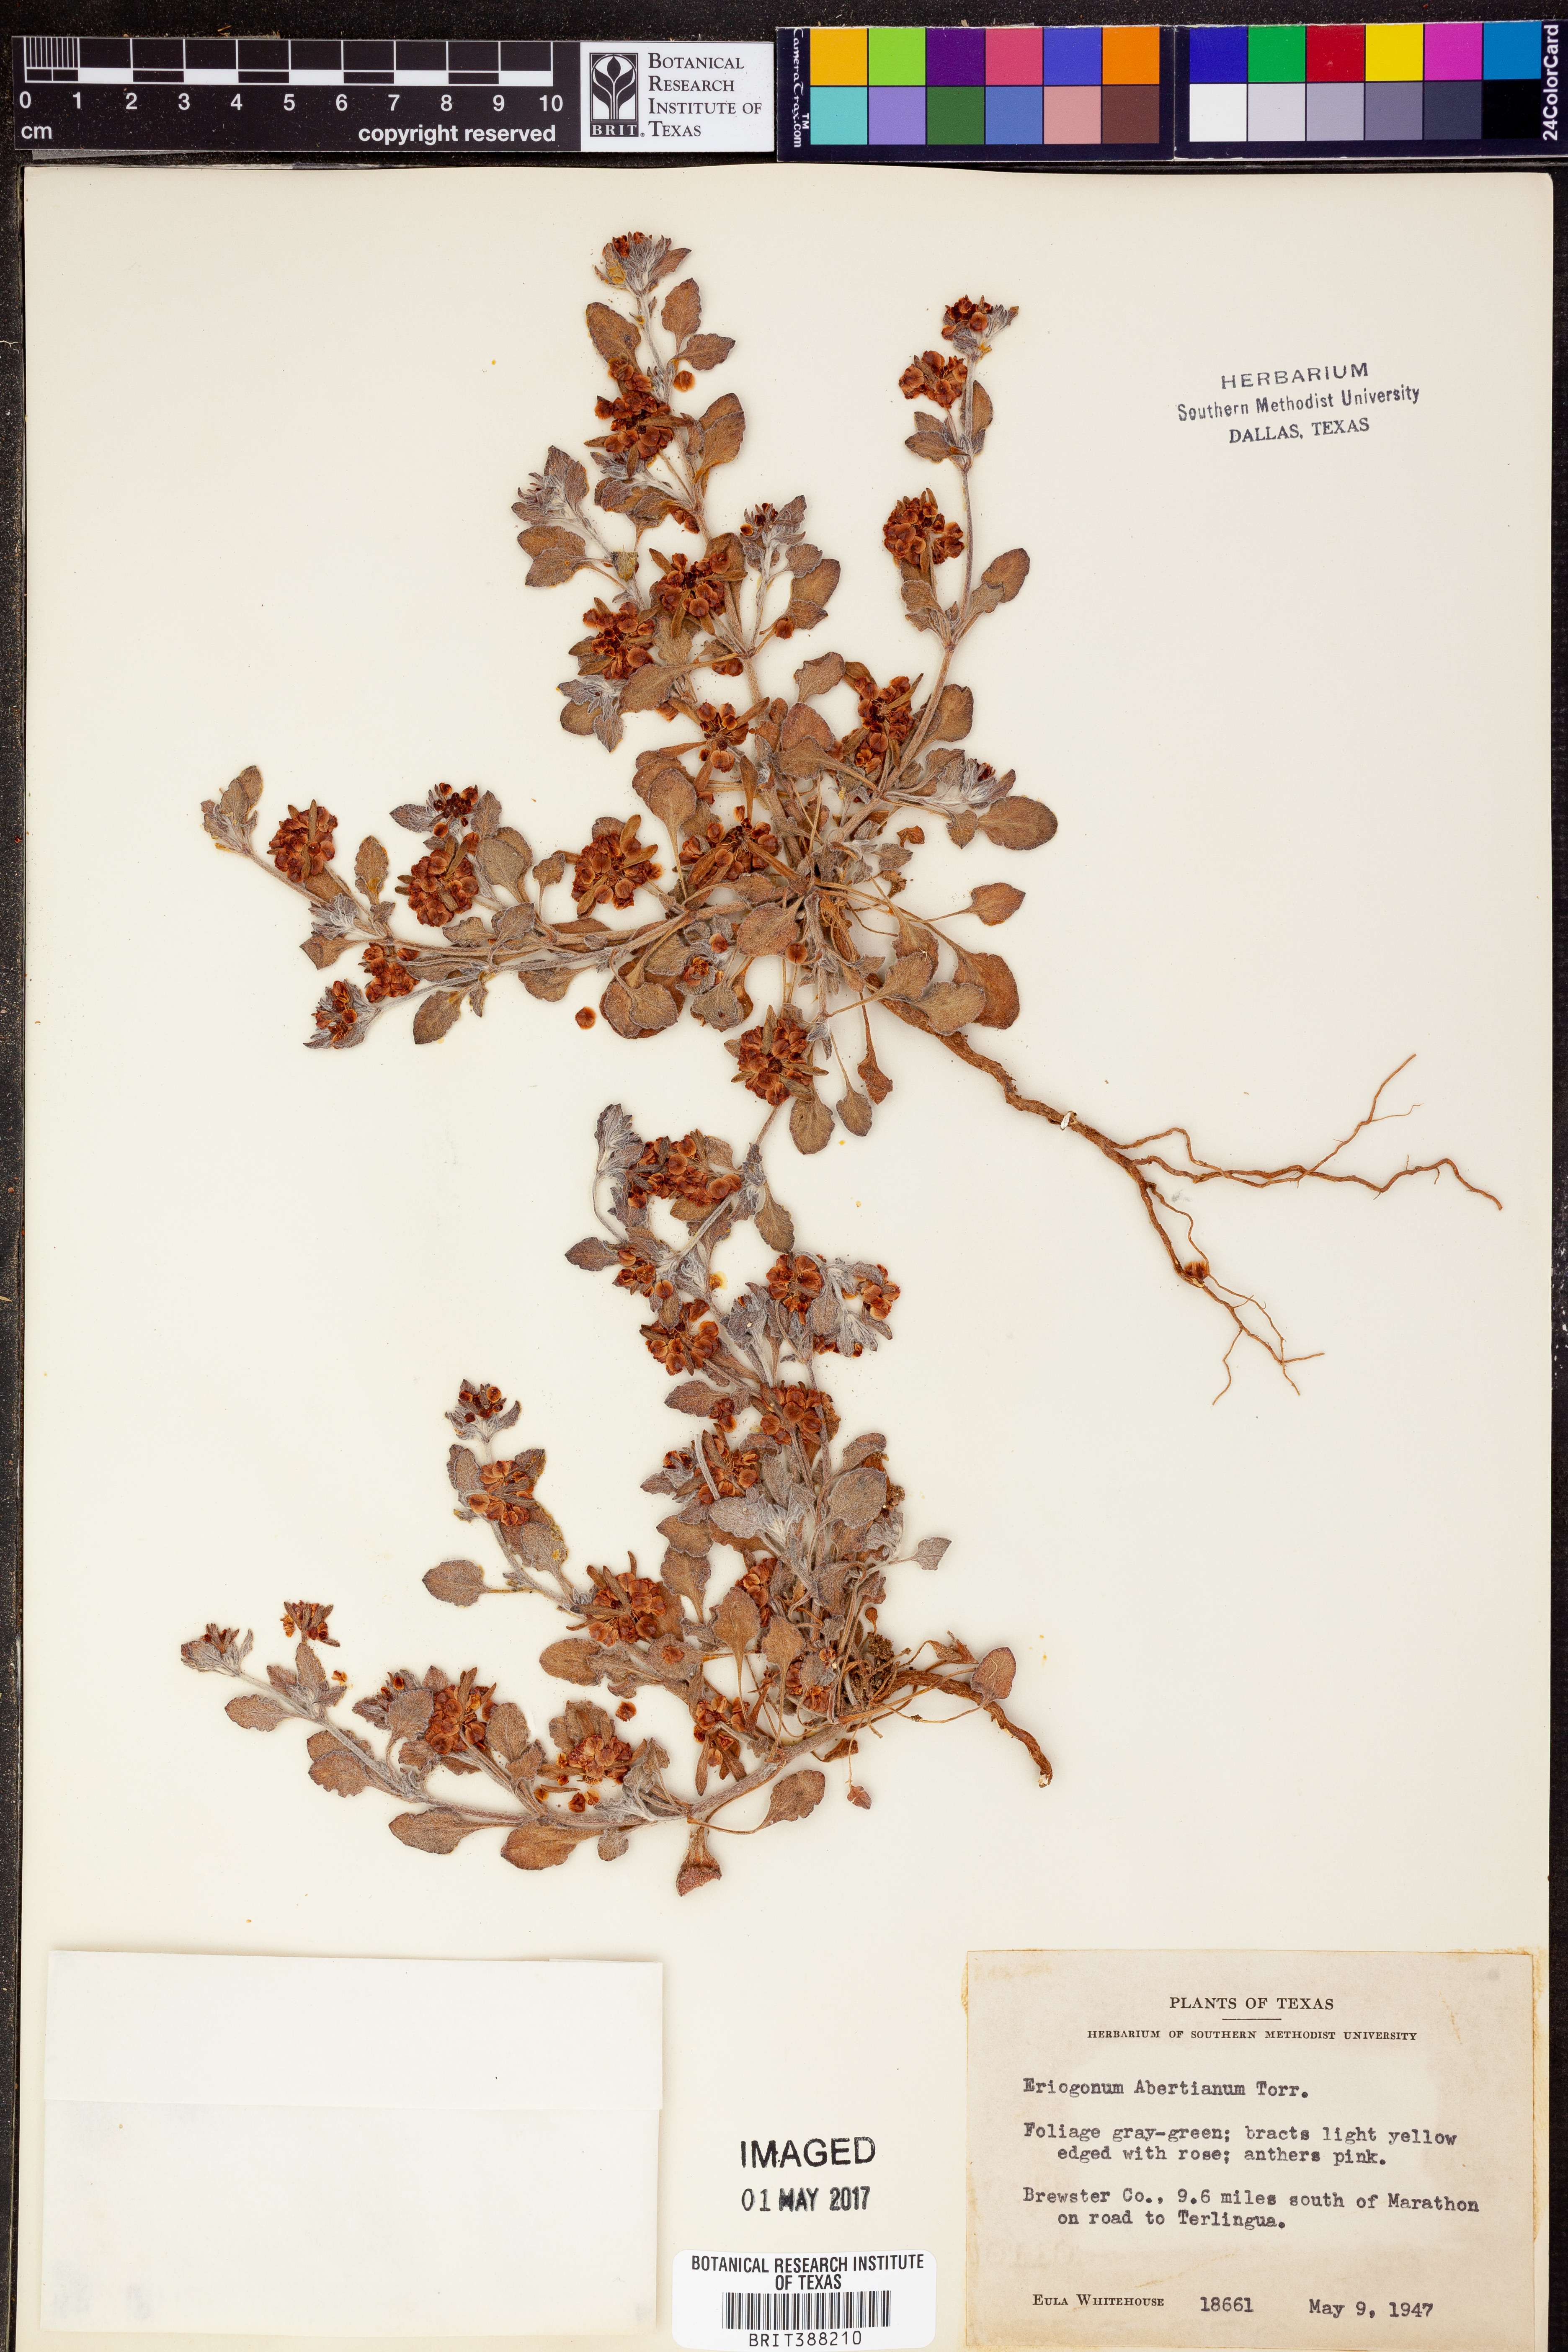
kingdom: Plantae
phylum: Tracheophyta
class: Magnoliopsida
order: Caryophyllales
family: Polygonaceae
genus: Eriogonum
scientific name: Eriogonum abertianum
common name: Abert's wild buckwheat
